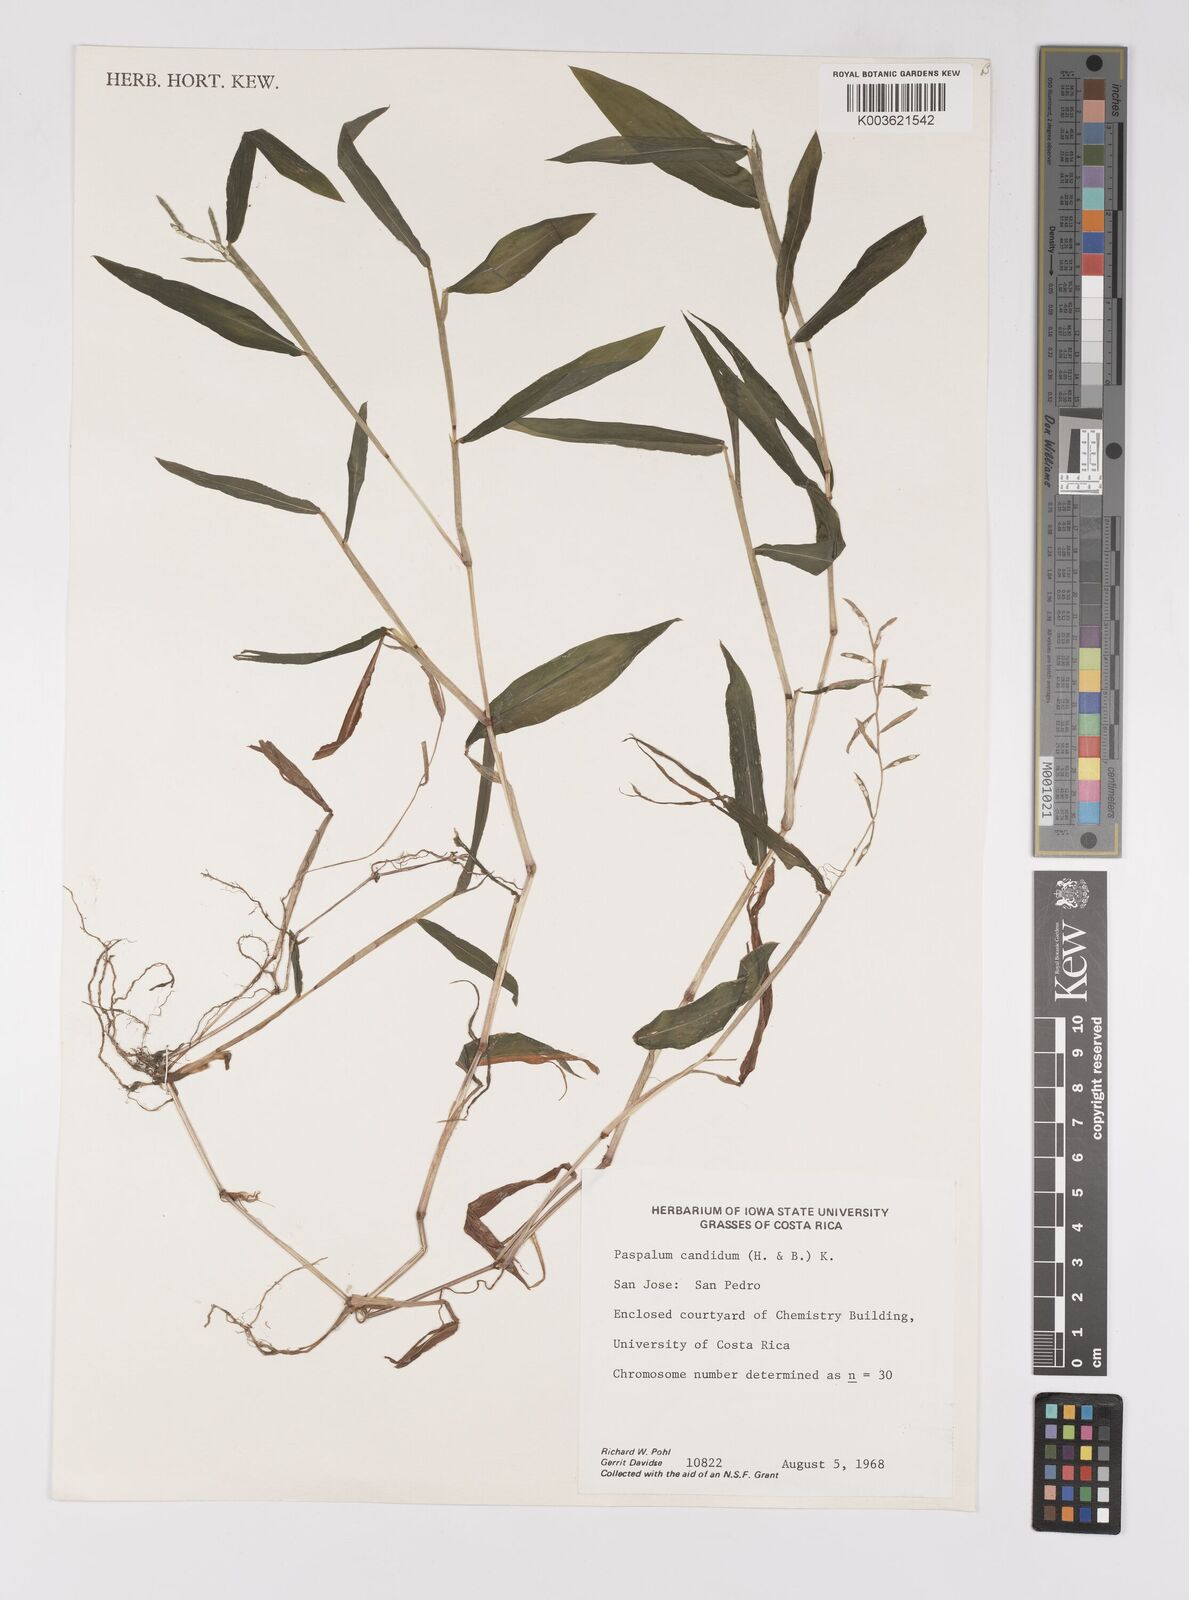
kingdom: Plantae
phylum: Tracheophyta
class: Liliopsida
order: Poales
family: Poaceae
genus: Paspalum
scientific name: Paspalum candidum
